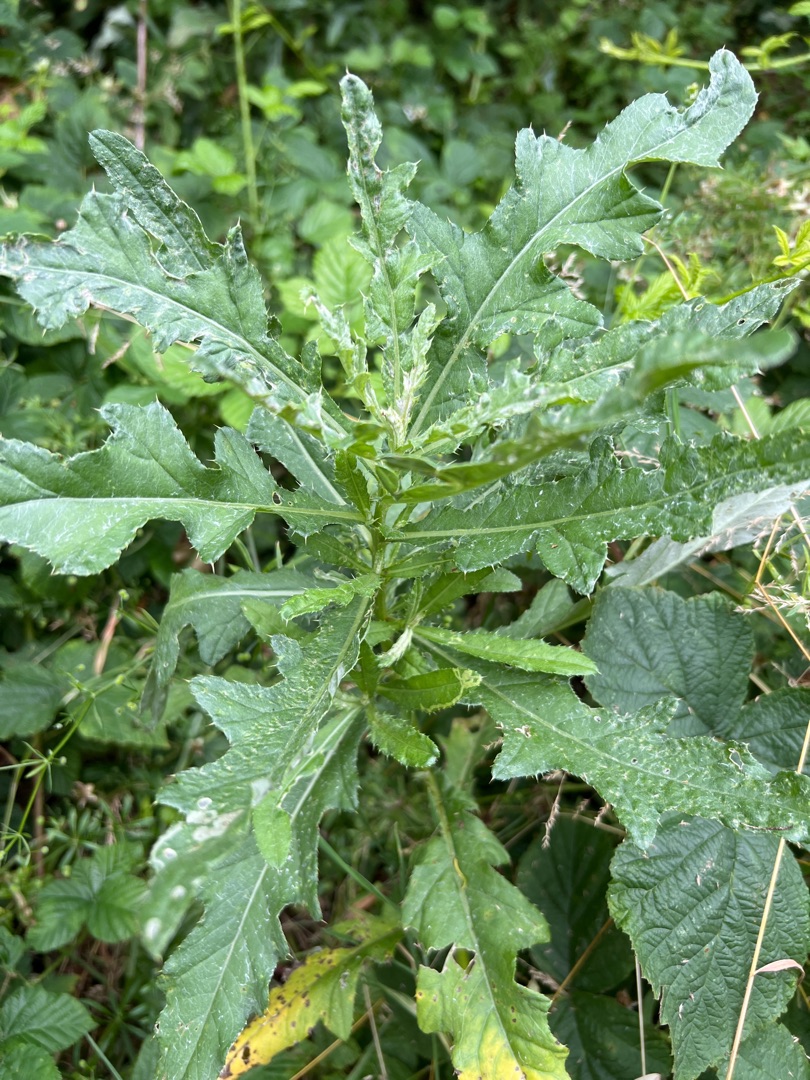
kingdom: Plantae
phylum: Tracheophyta
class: Magnoliopsida
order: Asterales
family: Asteraceae
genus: Cirsium
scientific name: Cirsium arvense
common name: Ager-tidsel
